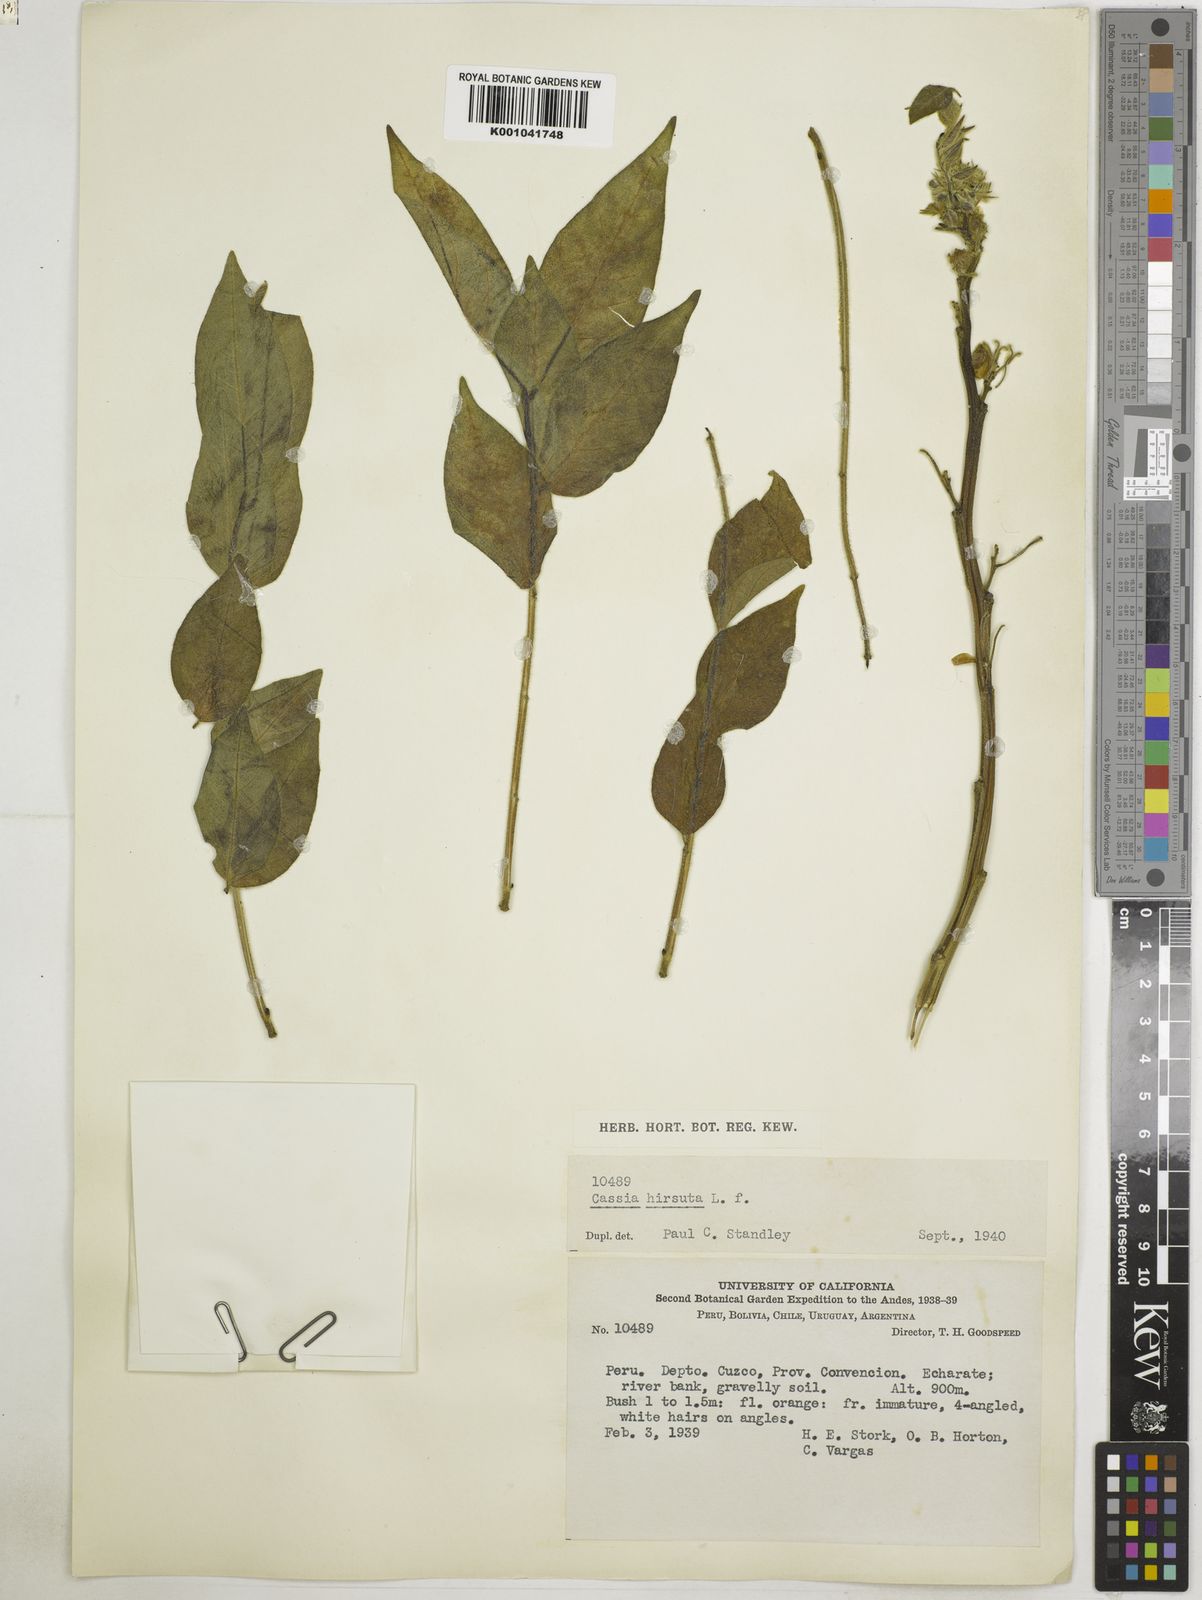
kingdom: Plantae
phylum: Tracheophyta
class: Magnoliopsida
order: Fabales
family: Fabaceae
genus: Senna
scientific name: Senna hirsuta
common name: Woolly senna
